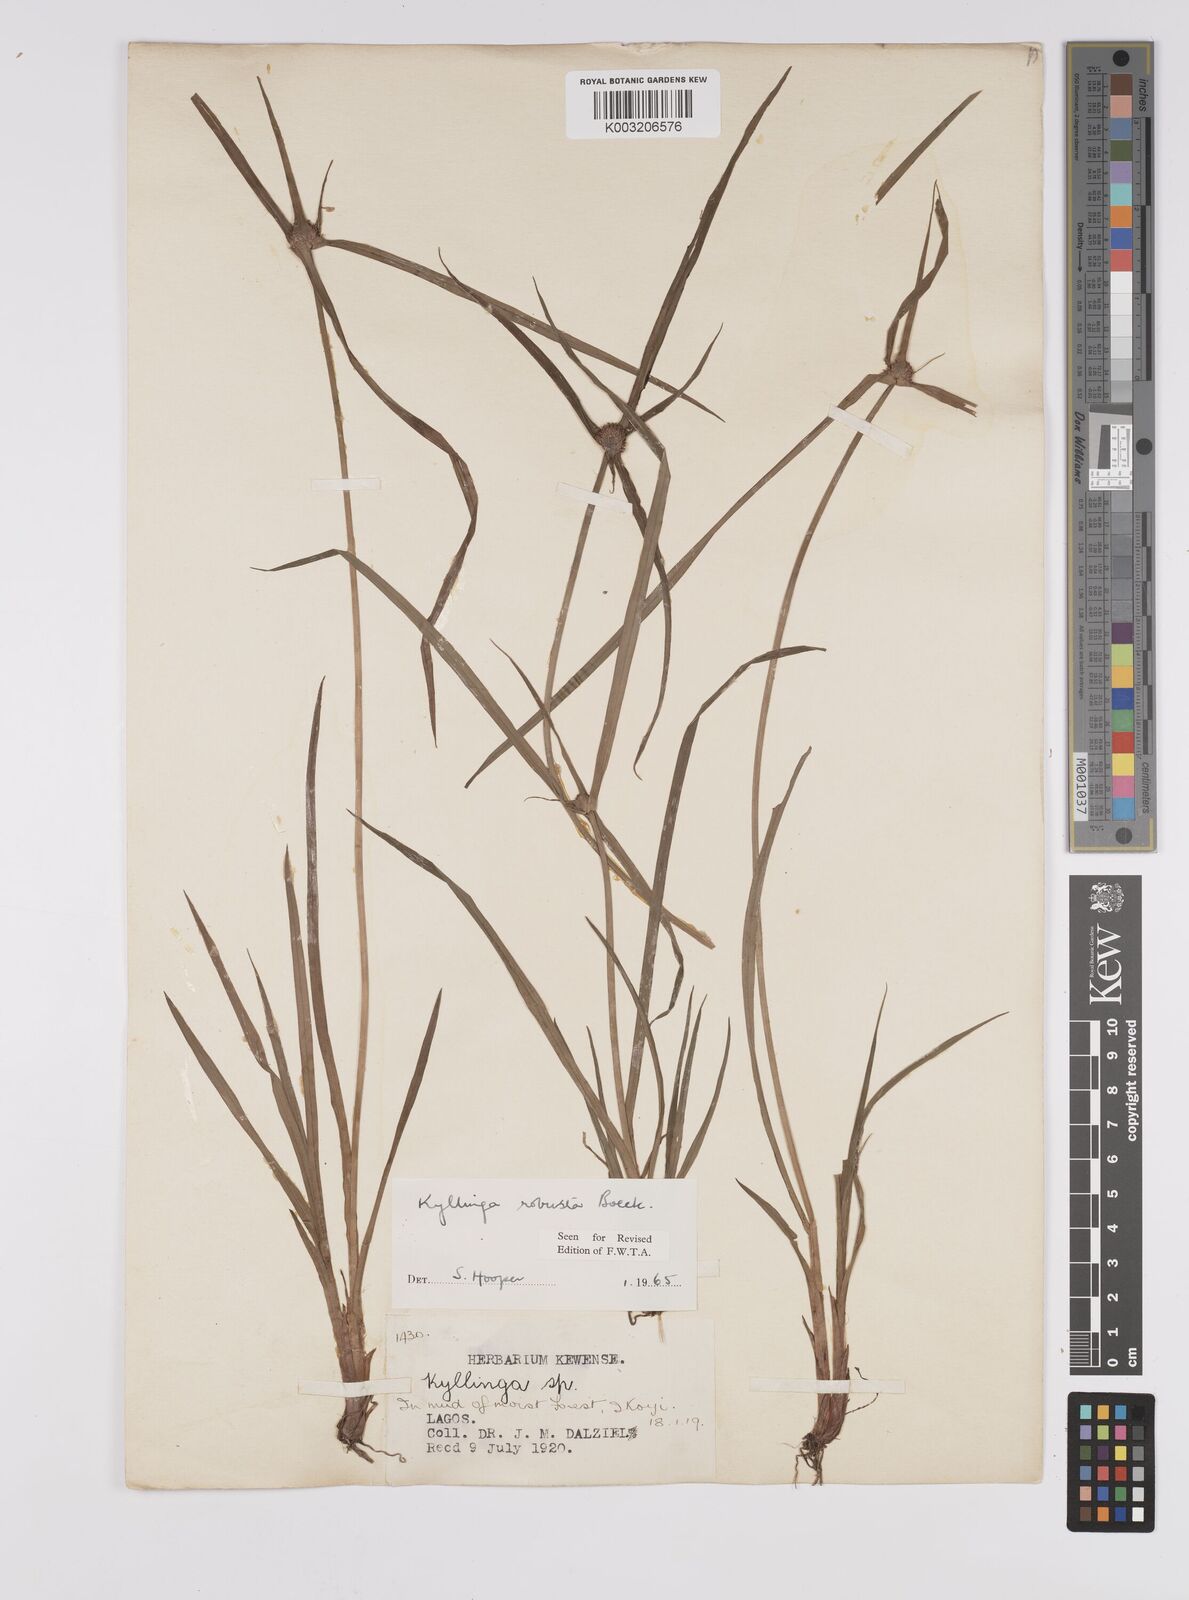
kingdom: Plantae
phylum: Tracheophyta
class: Liliopsida
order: Poales
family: Cyperaceae
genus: Cyperus
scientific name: Cyperus
